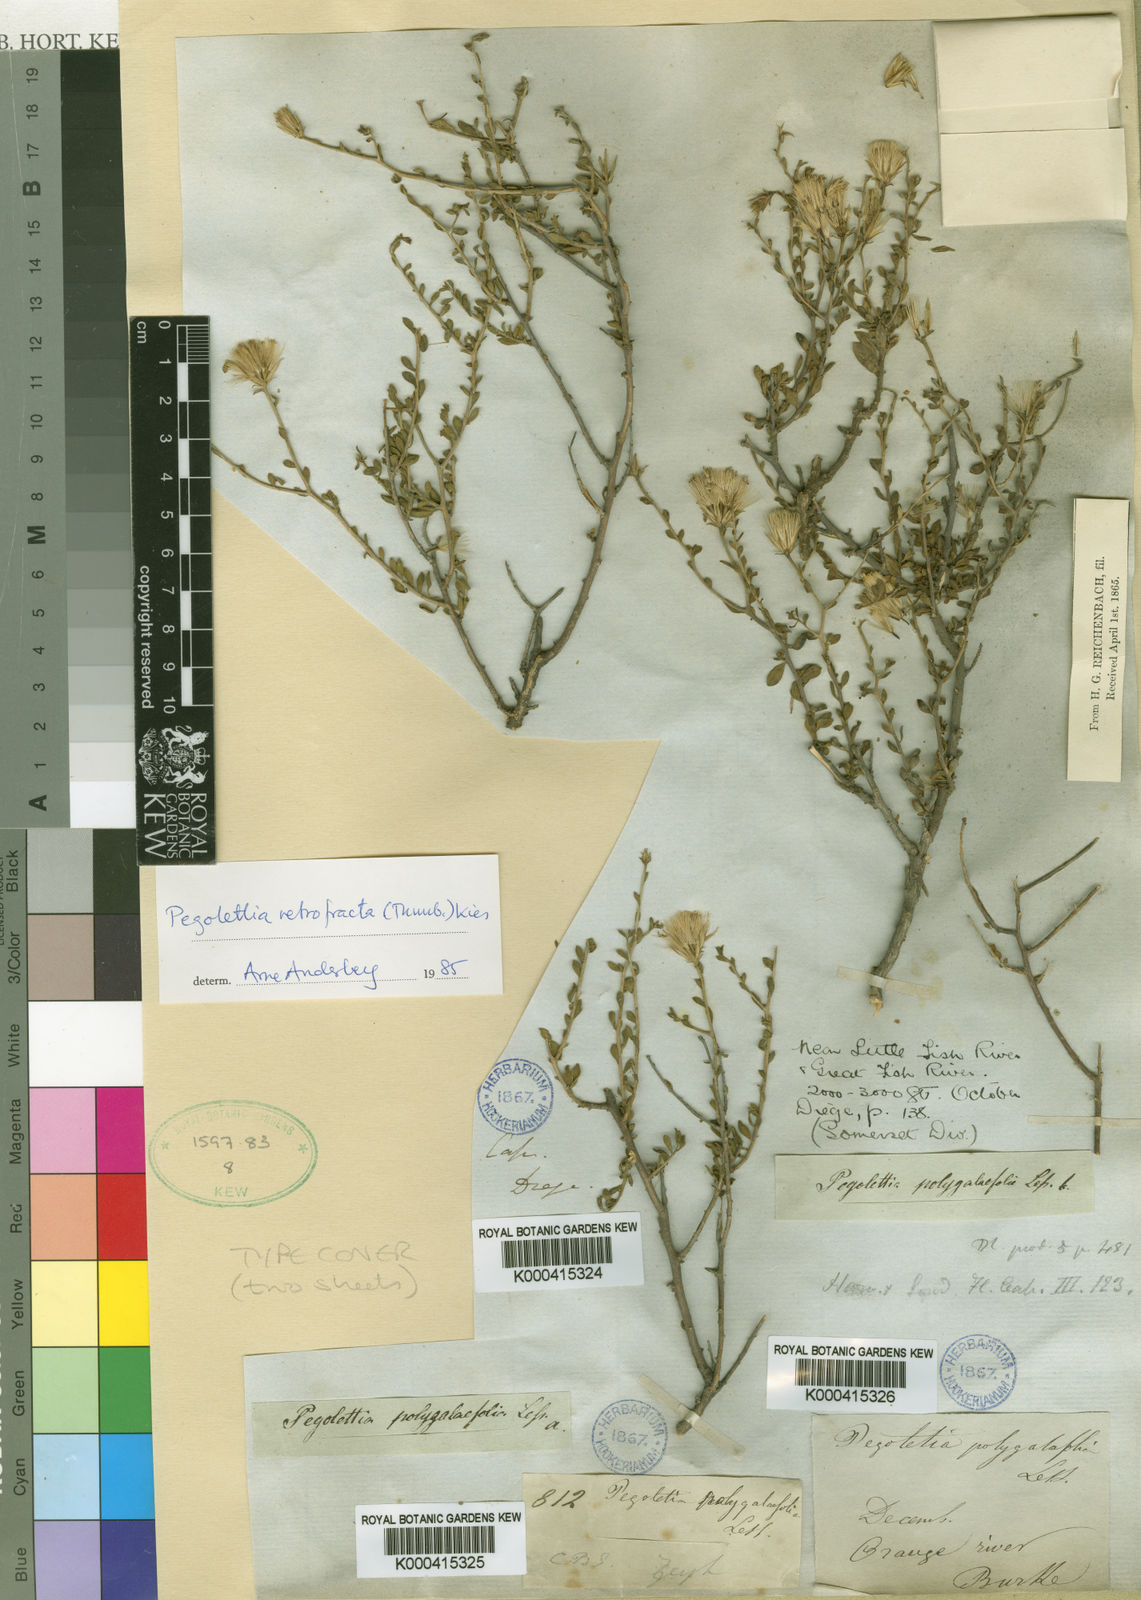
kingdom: Plantae
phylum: Tracheophyta
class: Magnoliopsida
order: Asterales
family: Asteraceae
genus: Pegolettia
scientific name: Pegolettia retrofracta
